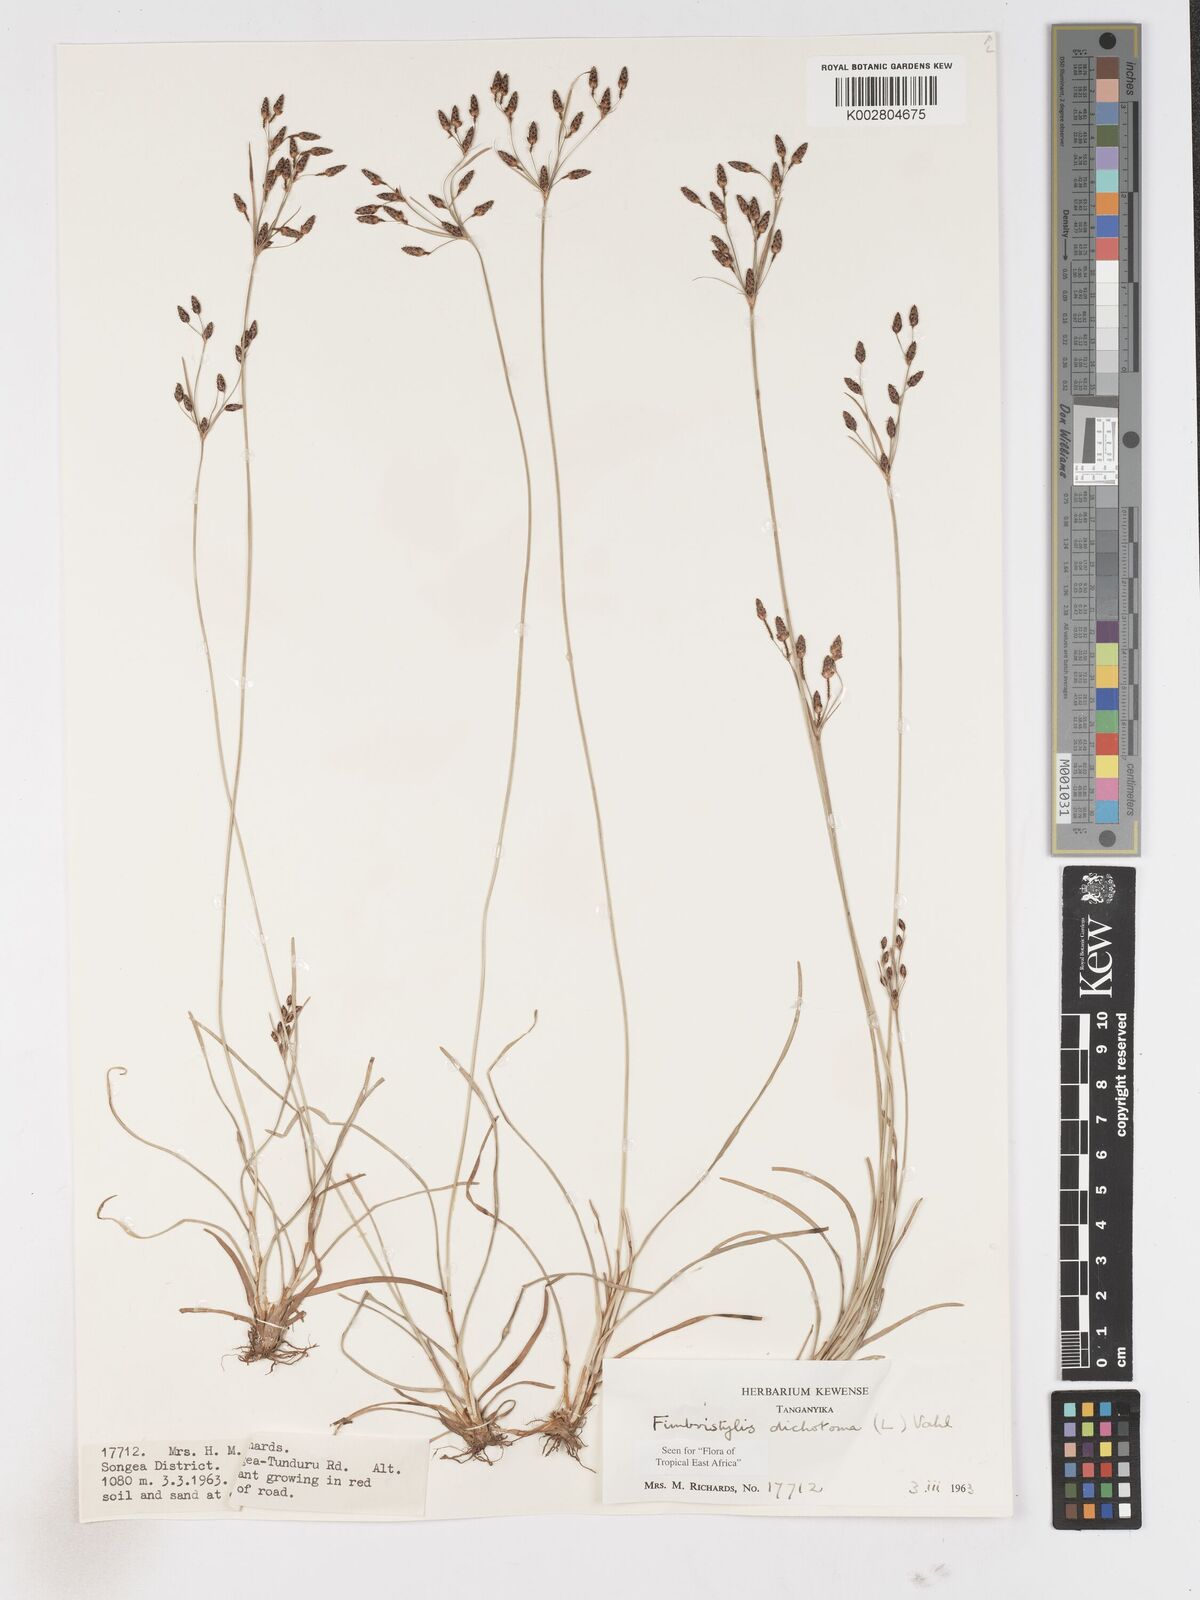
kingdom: Plantae
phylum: Tracheophyta
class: Liliopsida
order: Poales
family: Cyperaceae
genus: Fimbristylis
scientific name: Fimbristylis dichotoma
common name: Forked fimbry
